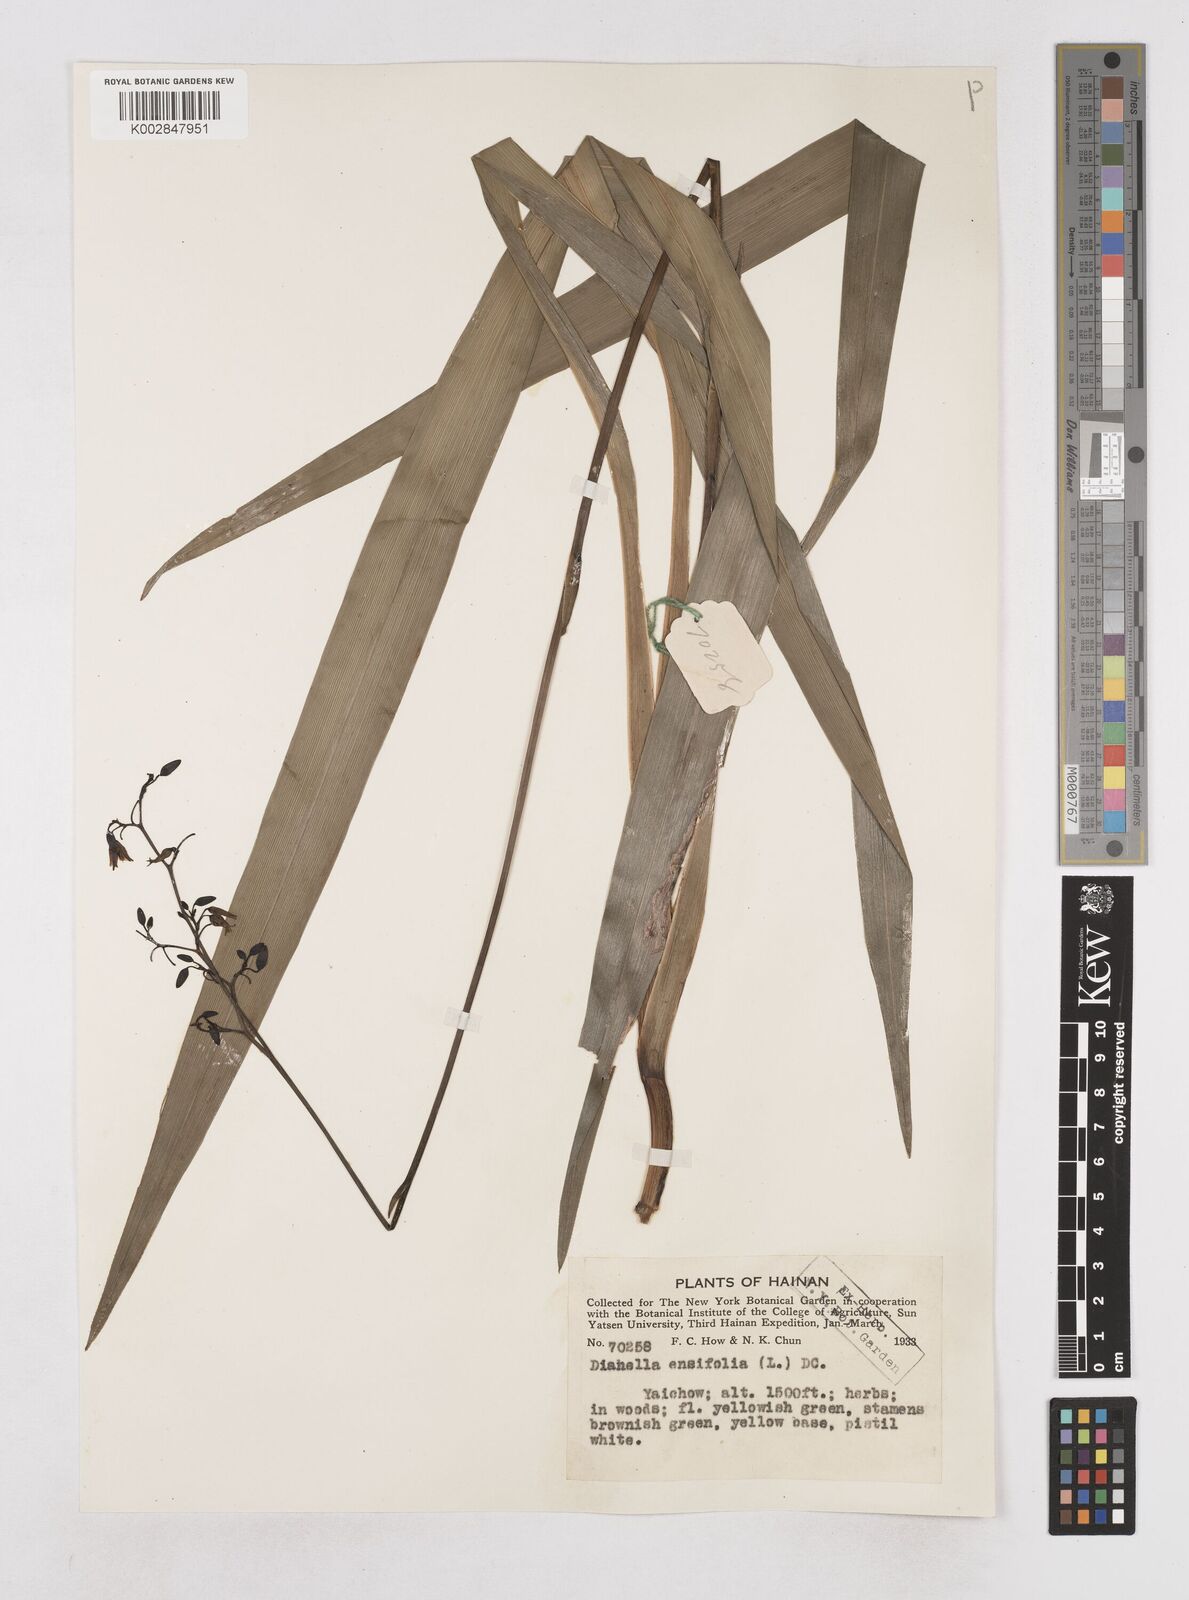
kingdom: Plantae
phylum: Tracheophyta
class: Liliopsida
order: Asparagales
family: Asphodelaceae
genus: Dianella
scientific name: Dianella ensifolia
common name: New zealand lilyplant
